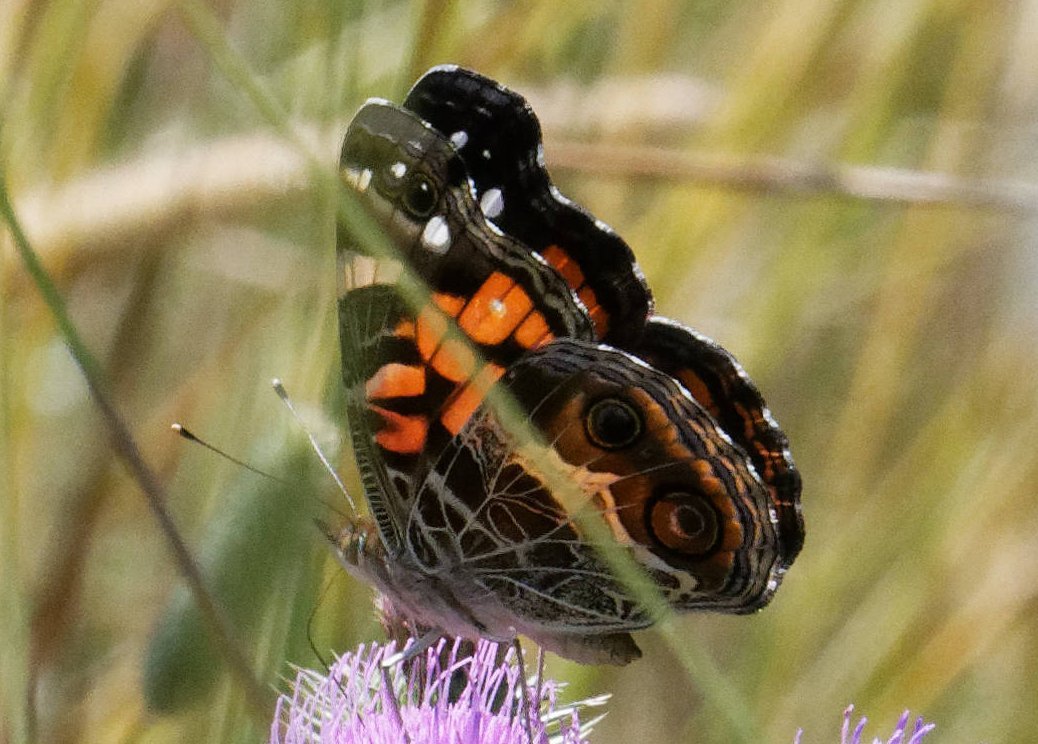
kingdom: Animalia
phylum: Arthropoda
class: Insecta
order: Lepidoptera
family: Nymphalidae
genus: Vanessa
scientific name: Vanessa virginiensis
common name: American Lady
